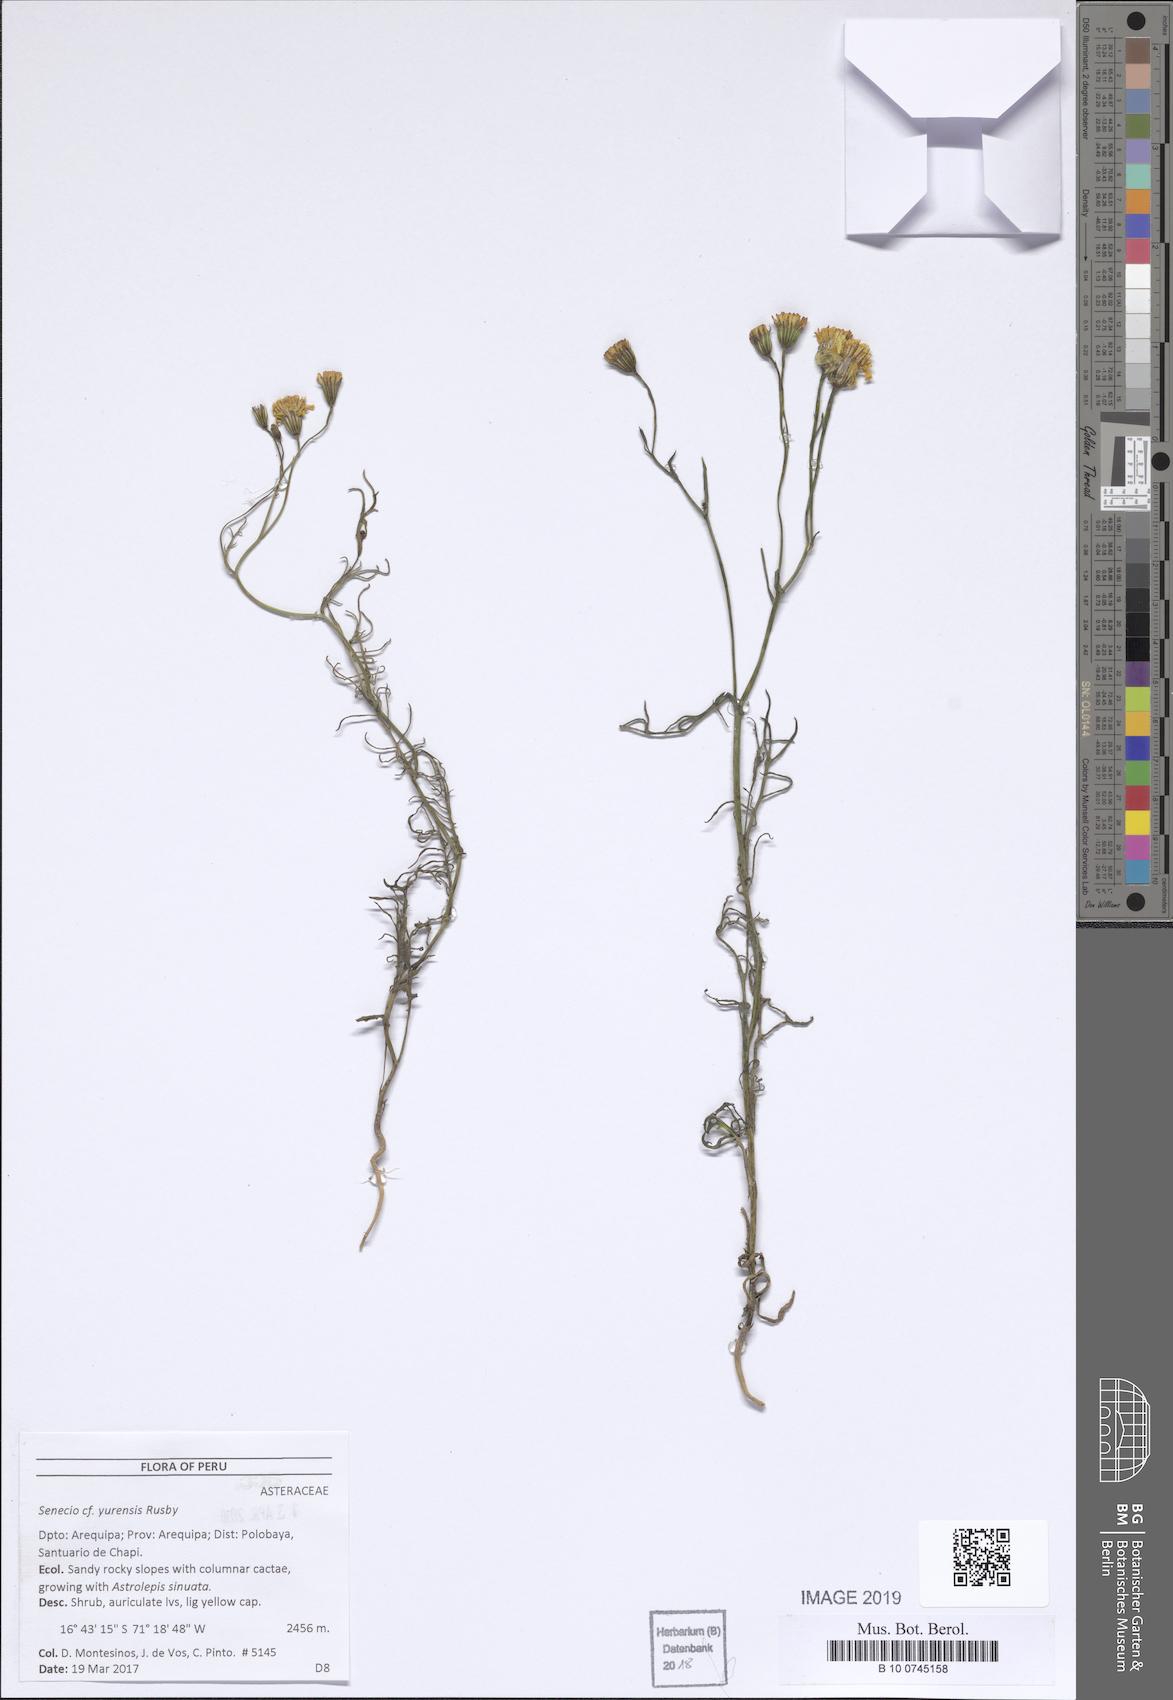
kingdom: Plantae
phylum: Tracheophyta
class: Magnoliopsida
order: Asterales
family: Asteraceae
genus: Senecio
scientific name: Senecio yurensis
